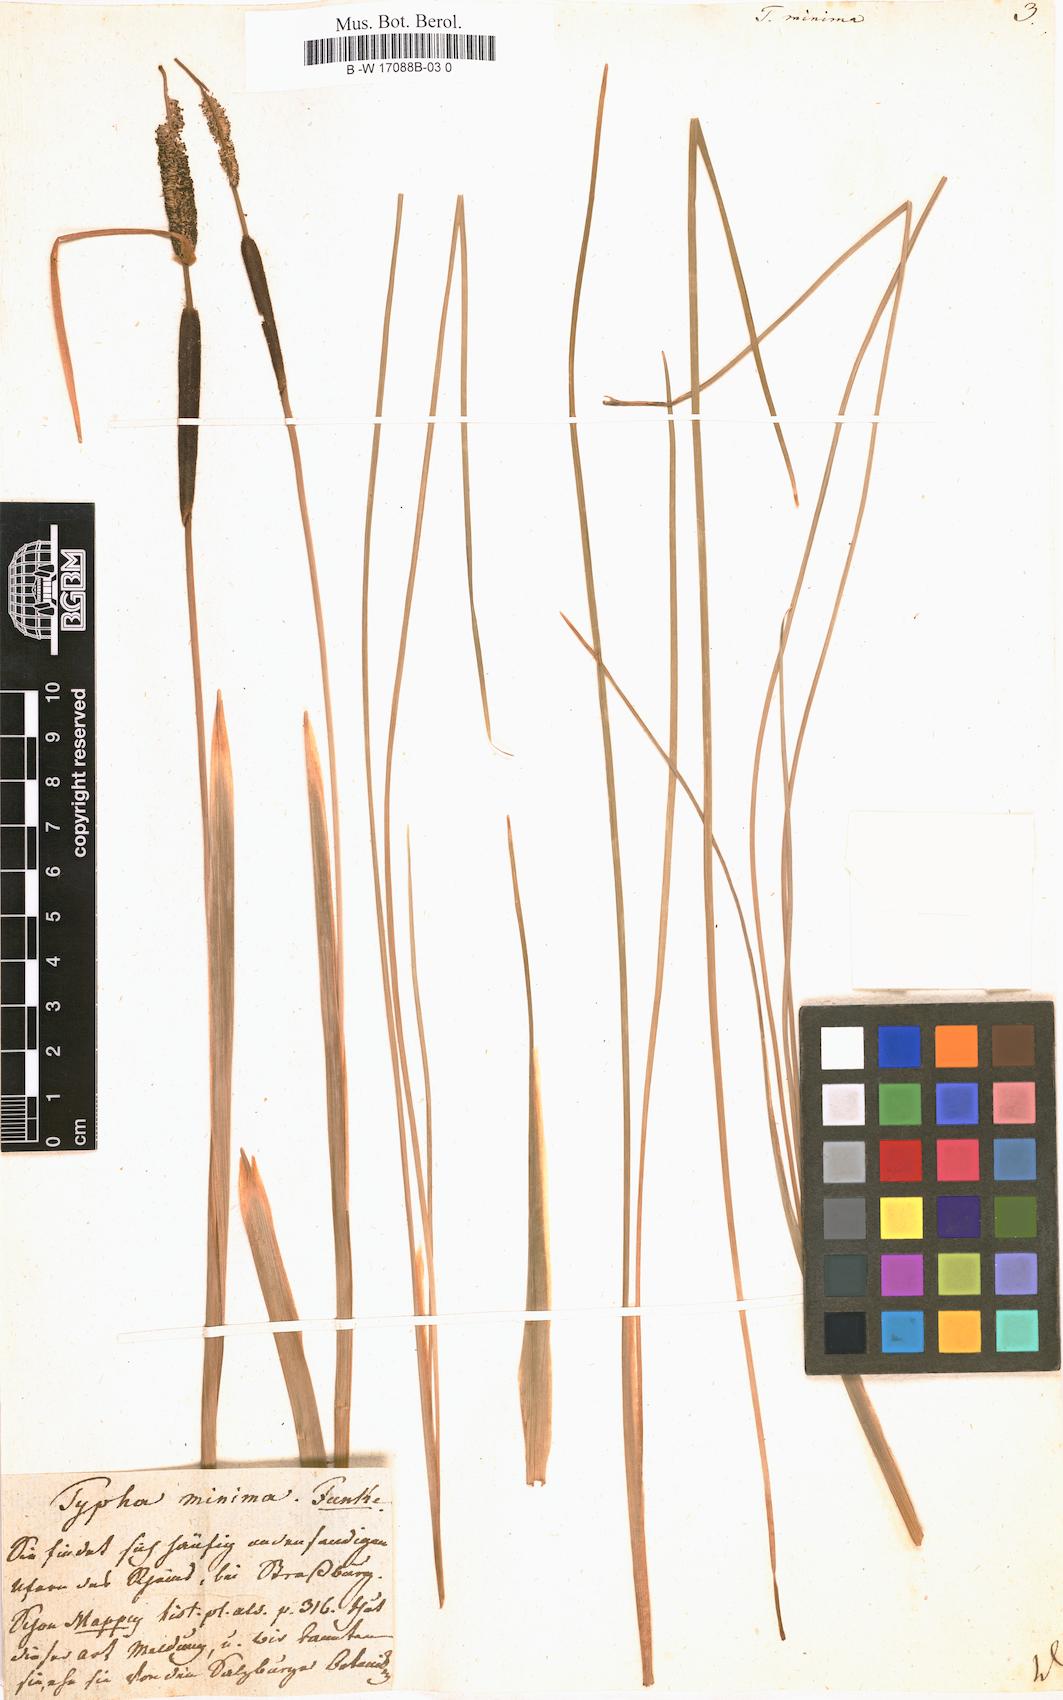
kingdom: Plantae
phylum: Tracheophyta
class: Liliopsida
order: Poales
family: Typhaceae
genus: Typha
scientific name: Typha minima
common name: Dwarf bulrush
